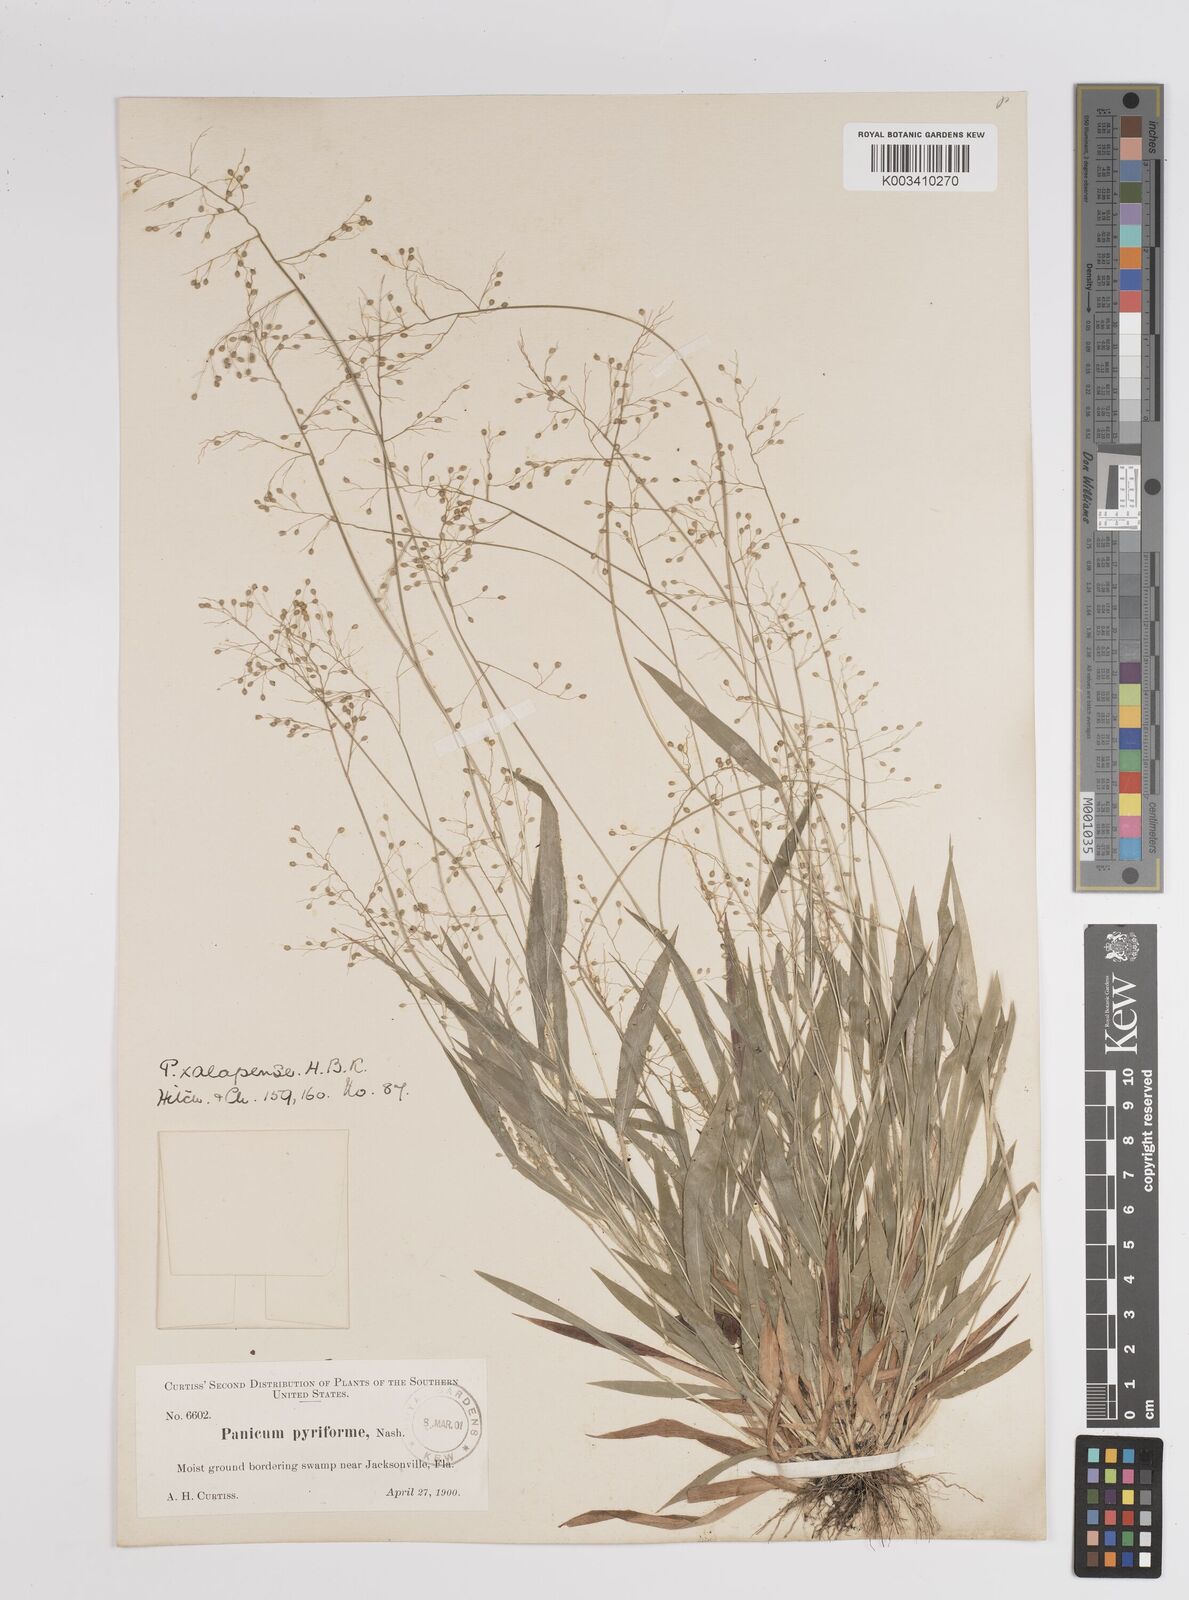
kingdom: Plantae
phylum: Tracheophyta
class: Liliopsida
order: Poales
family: Poaceae
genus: Dichanthelium
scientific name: Dichanthelium laxiflorum
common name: Soft-tuft panic grass
